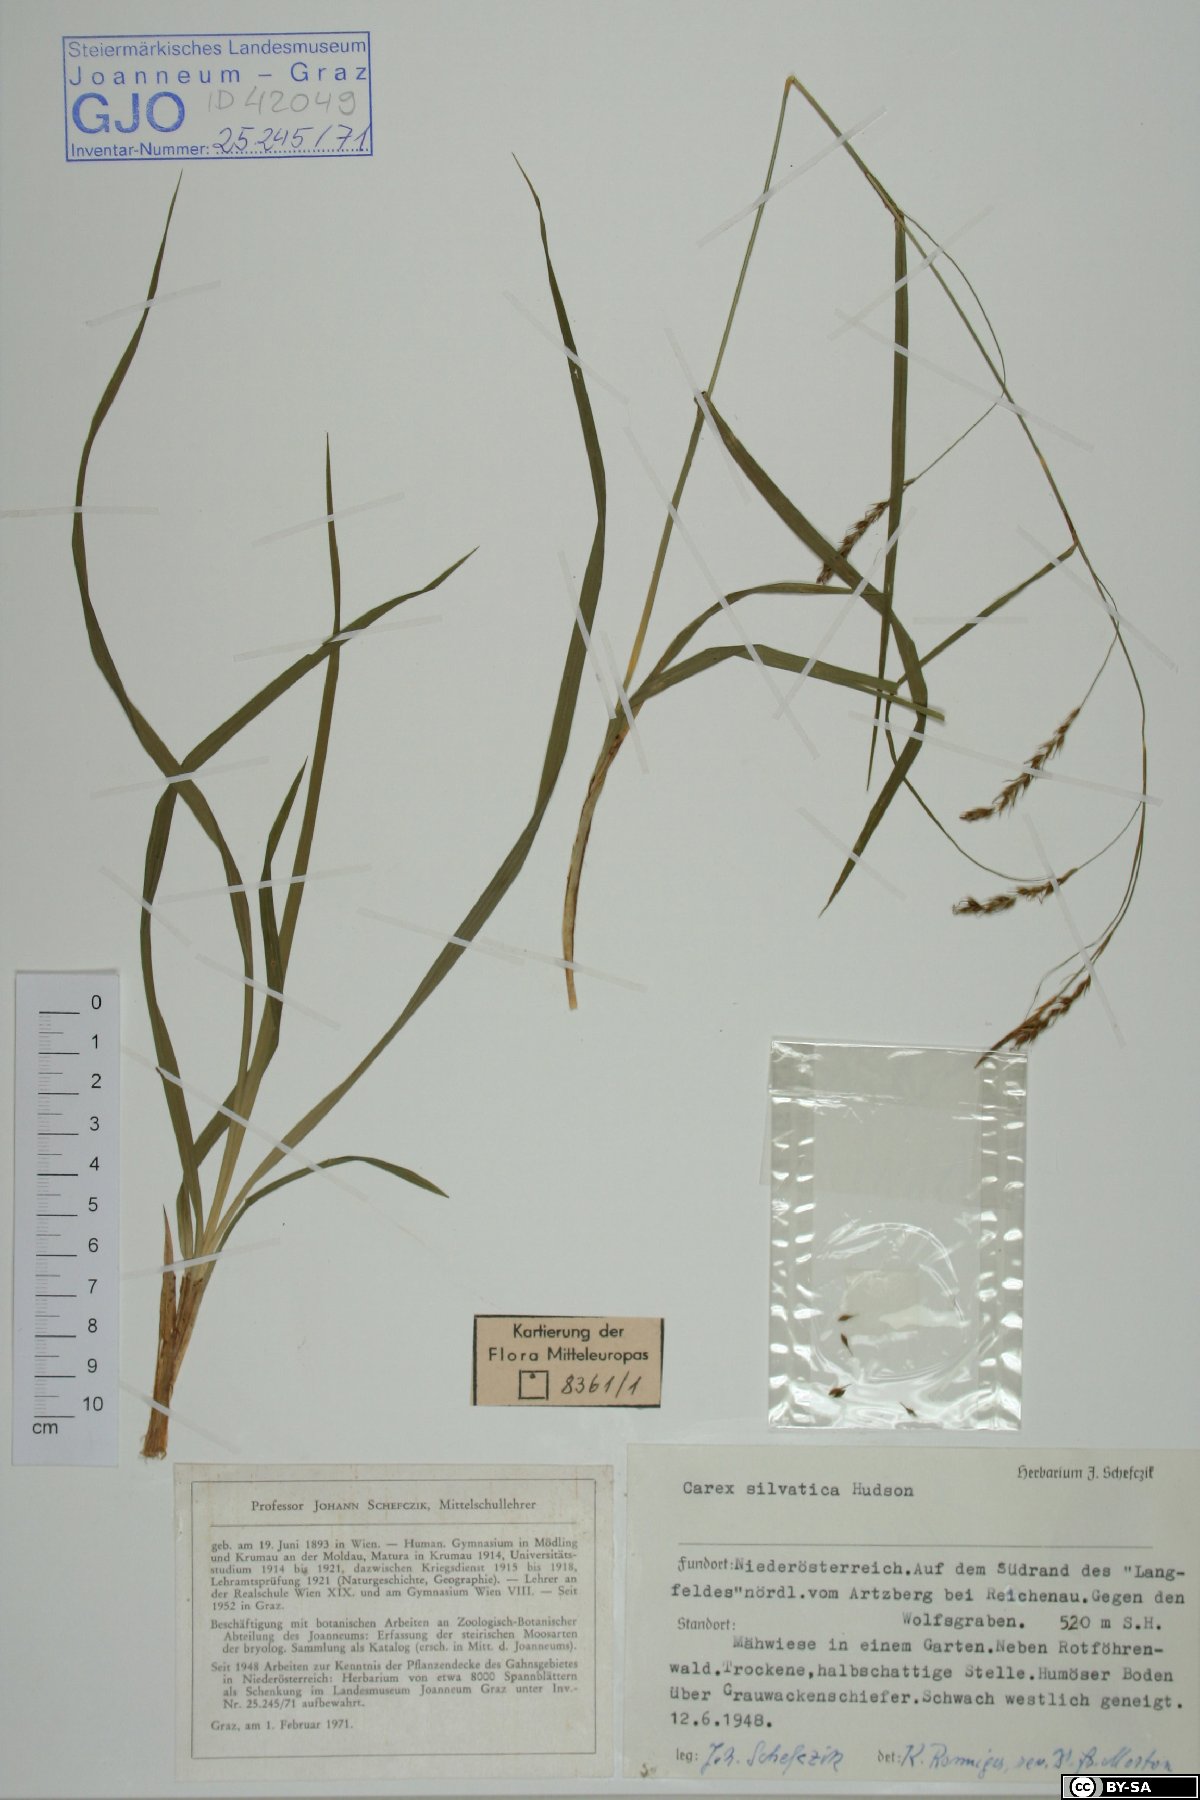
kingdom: Plantae
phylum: Tracheophyta
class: Liliopsida
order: Poales
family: Cyperaceae
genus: Carex
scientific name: Carex sylvatica
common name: Wood-sedge
